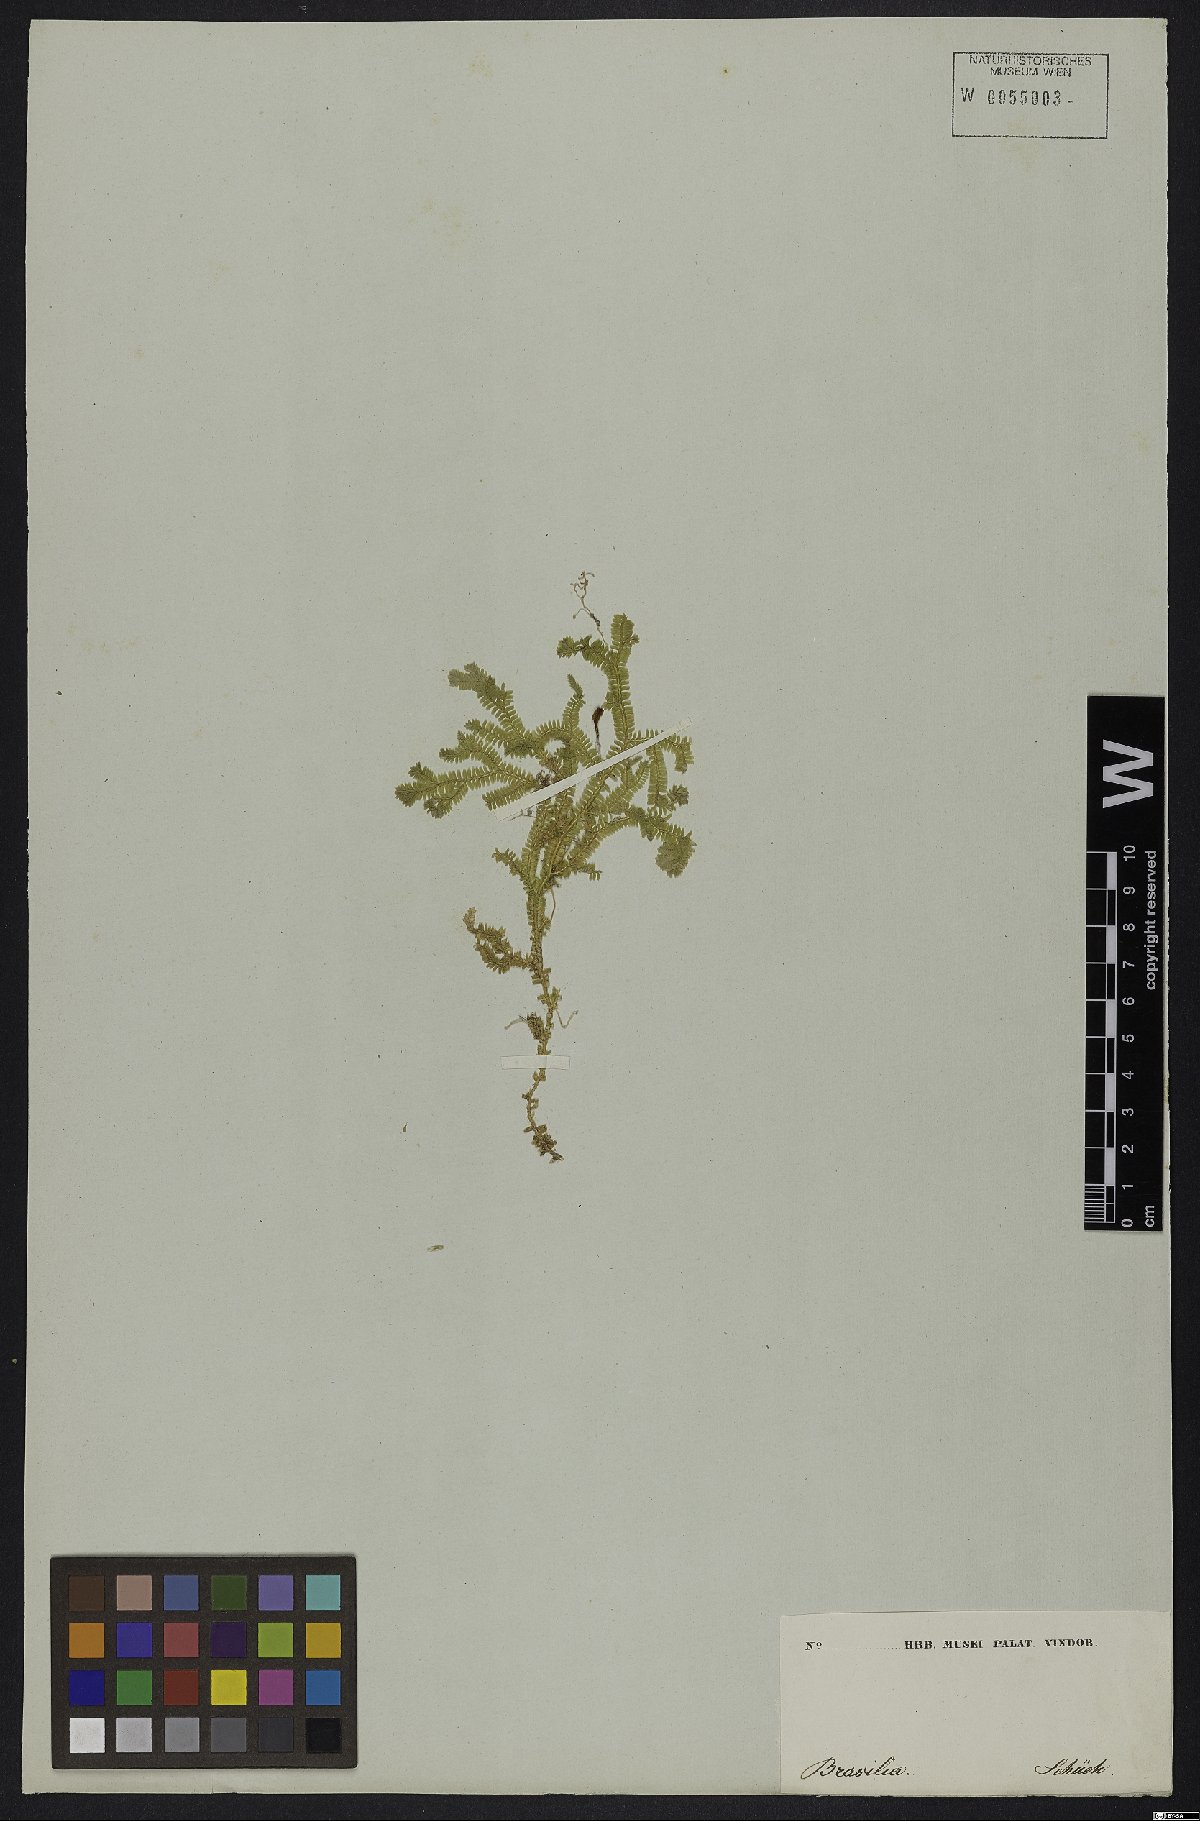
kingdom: Plantae
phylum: Tracheophyta
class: Lycopodiopsida
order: Selaginellales
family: Selaginellaceae
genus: Selaginella
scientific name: Selaginella jungermannioides
